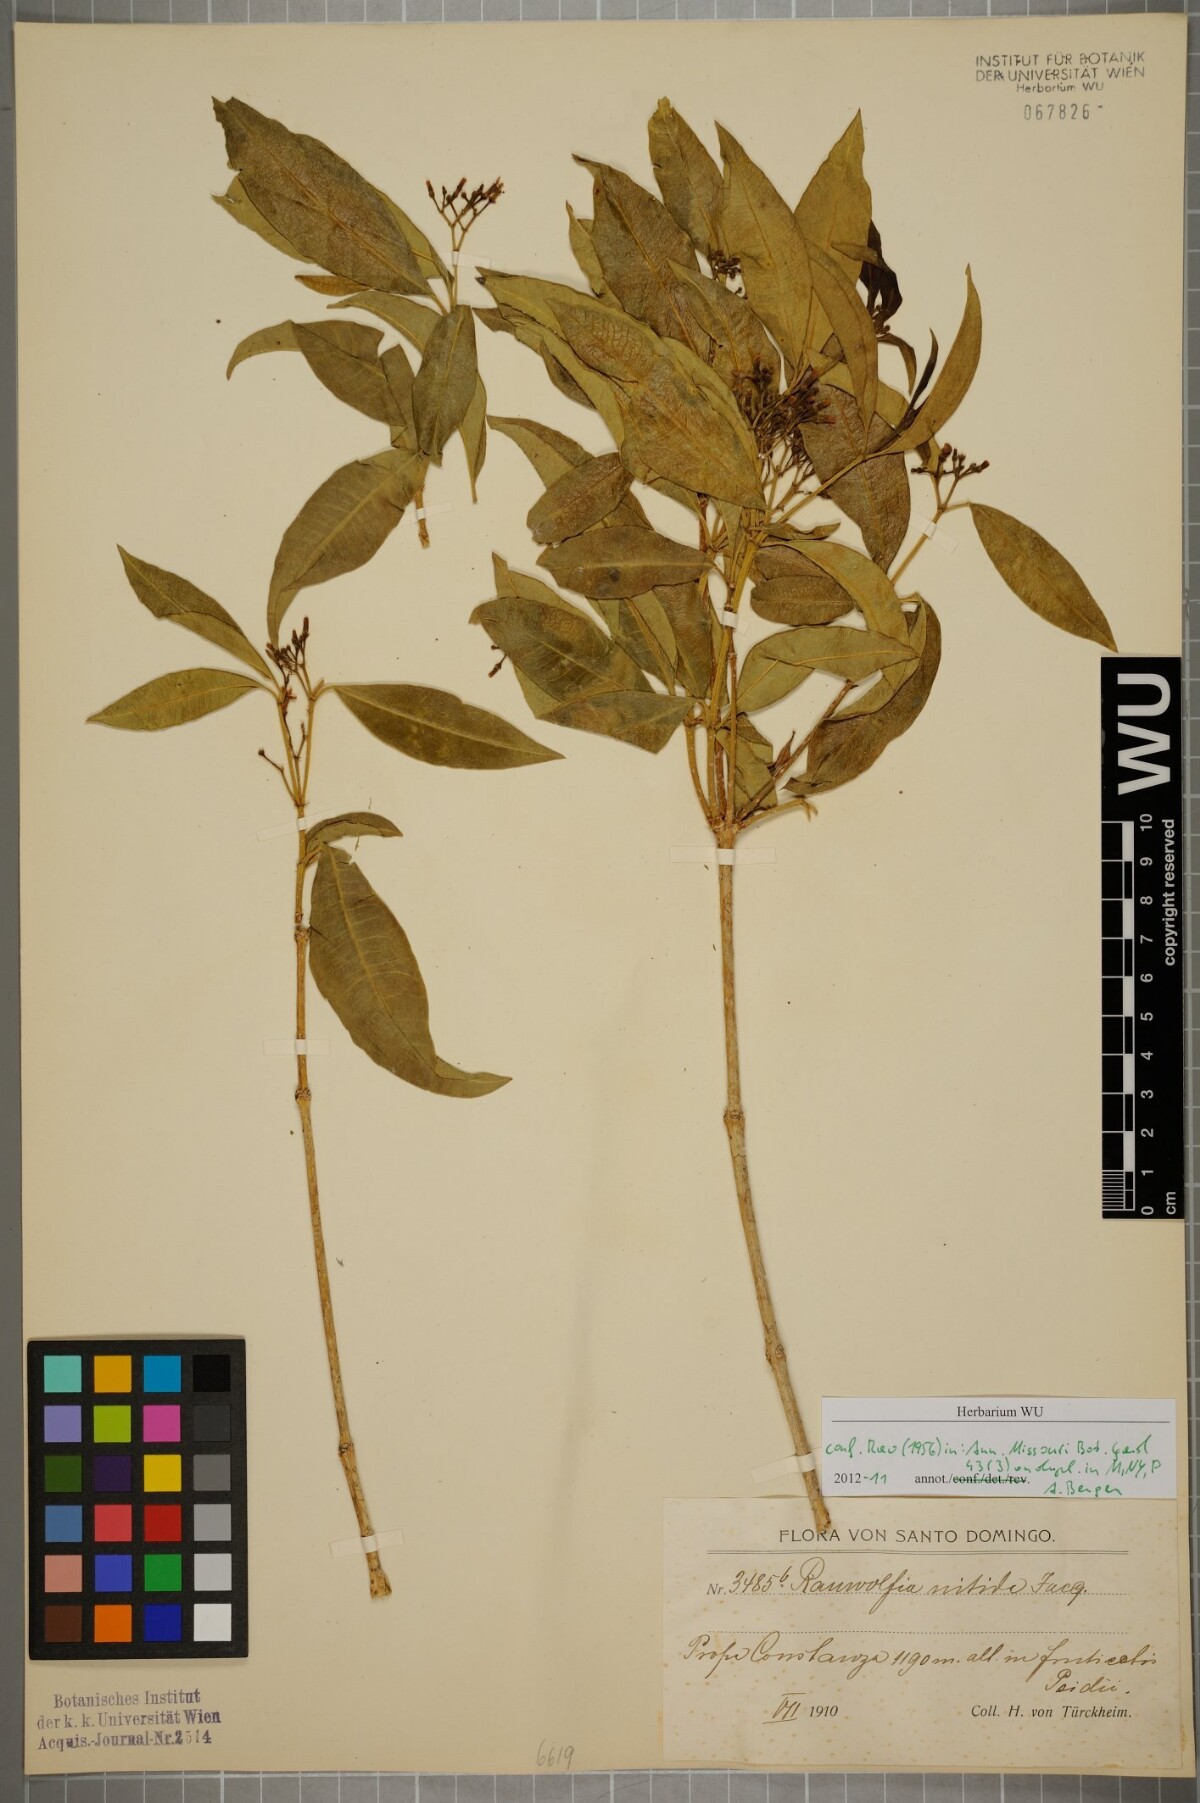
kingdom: Plantae
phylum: Tracheophyta
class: Magnoliopsida
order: Gentianales
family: Apocynaceae
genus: Rauvolfia
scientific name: Rauvolfia nitida
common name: Bitter-ash
